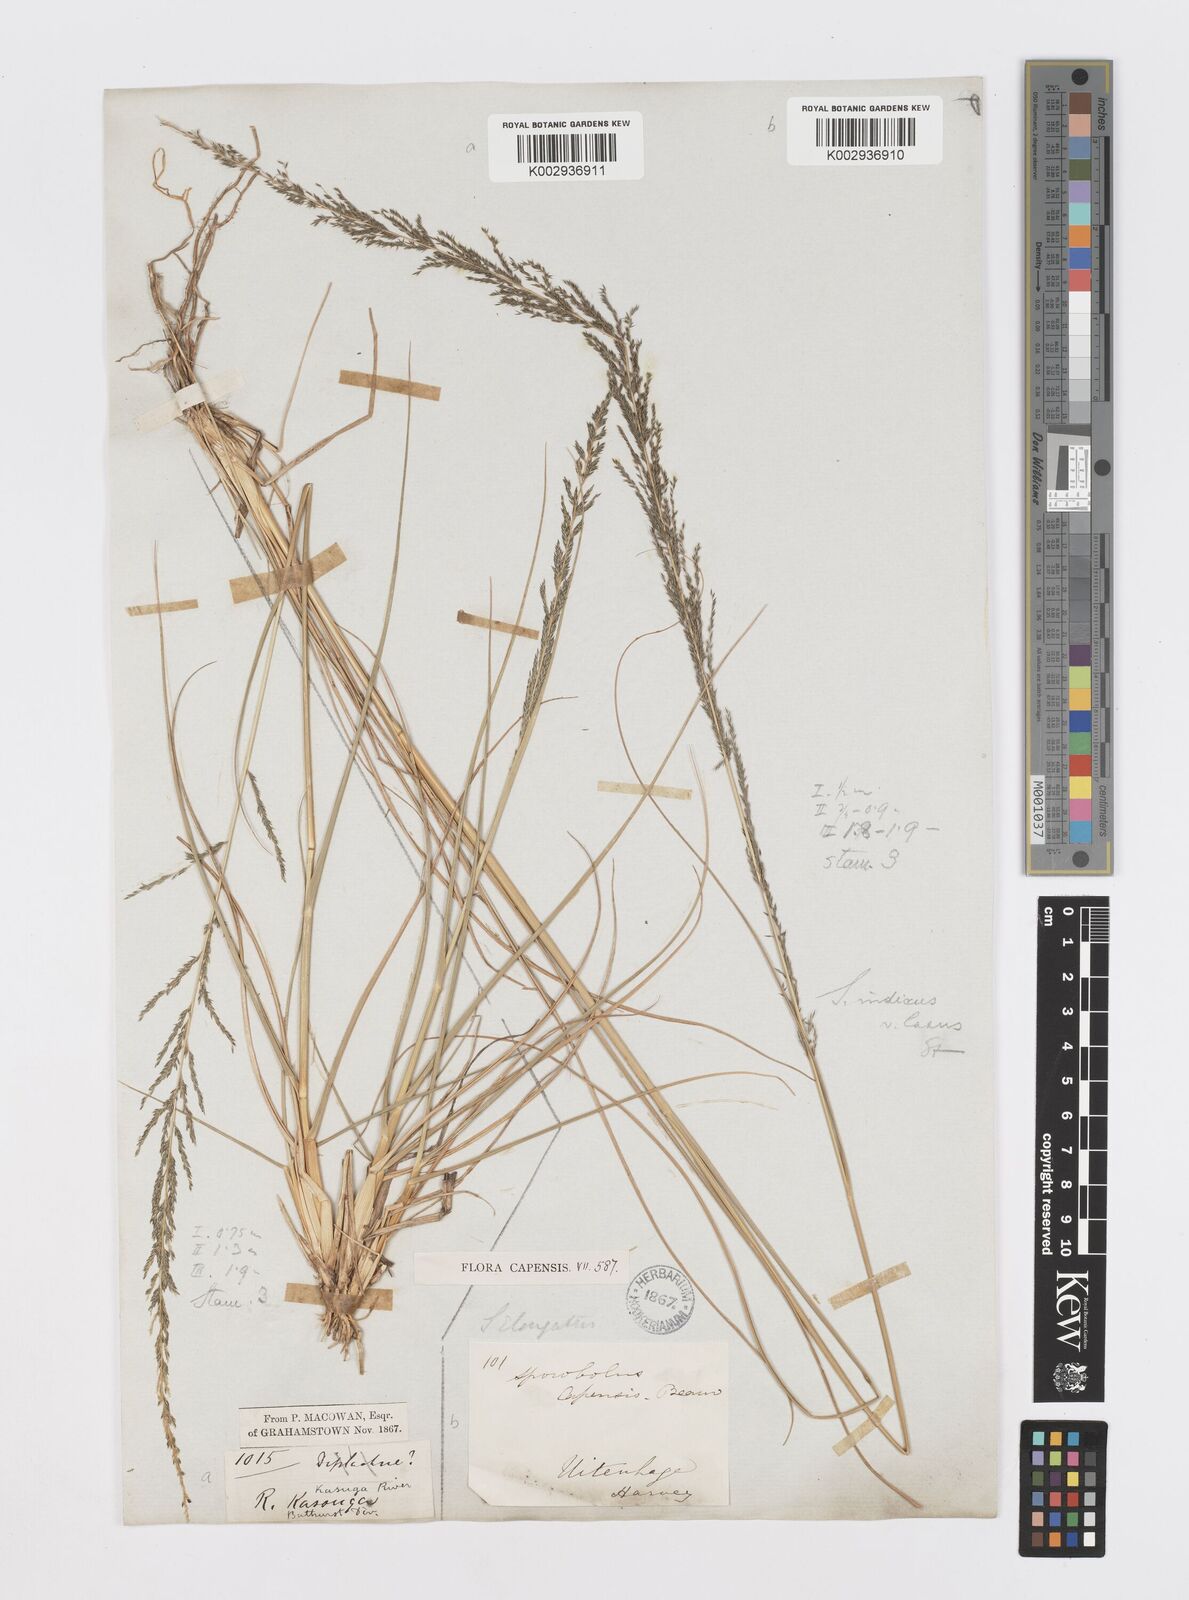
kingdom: Plantae
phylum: Tracheophyta
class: Liliopsida
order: Poales
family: Poaceae
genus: Sporobolus
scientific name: Sporobolus natalensis
